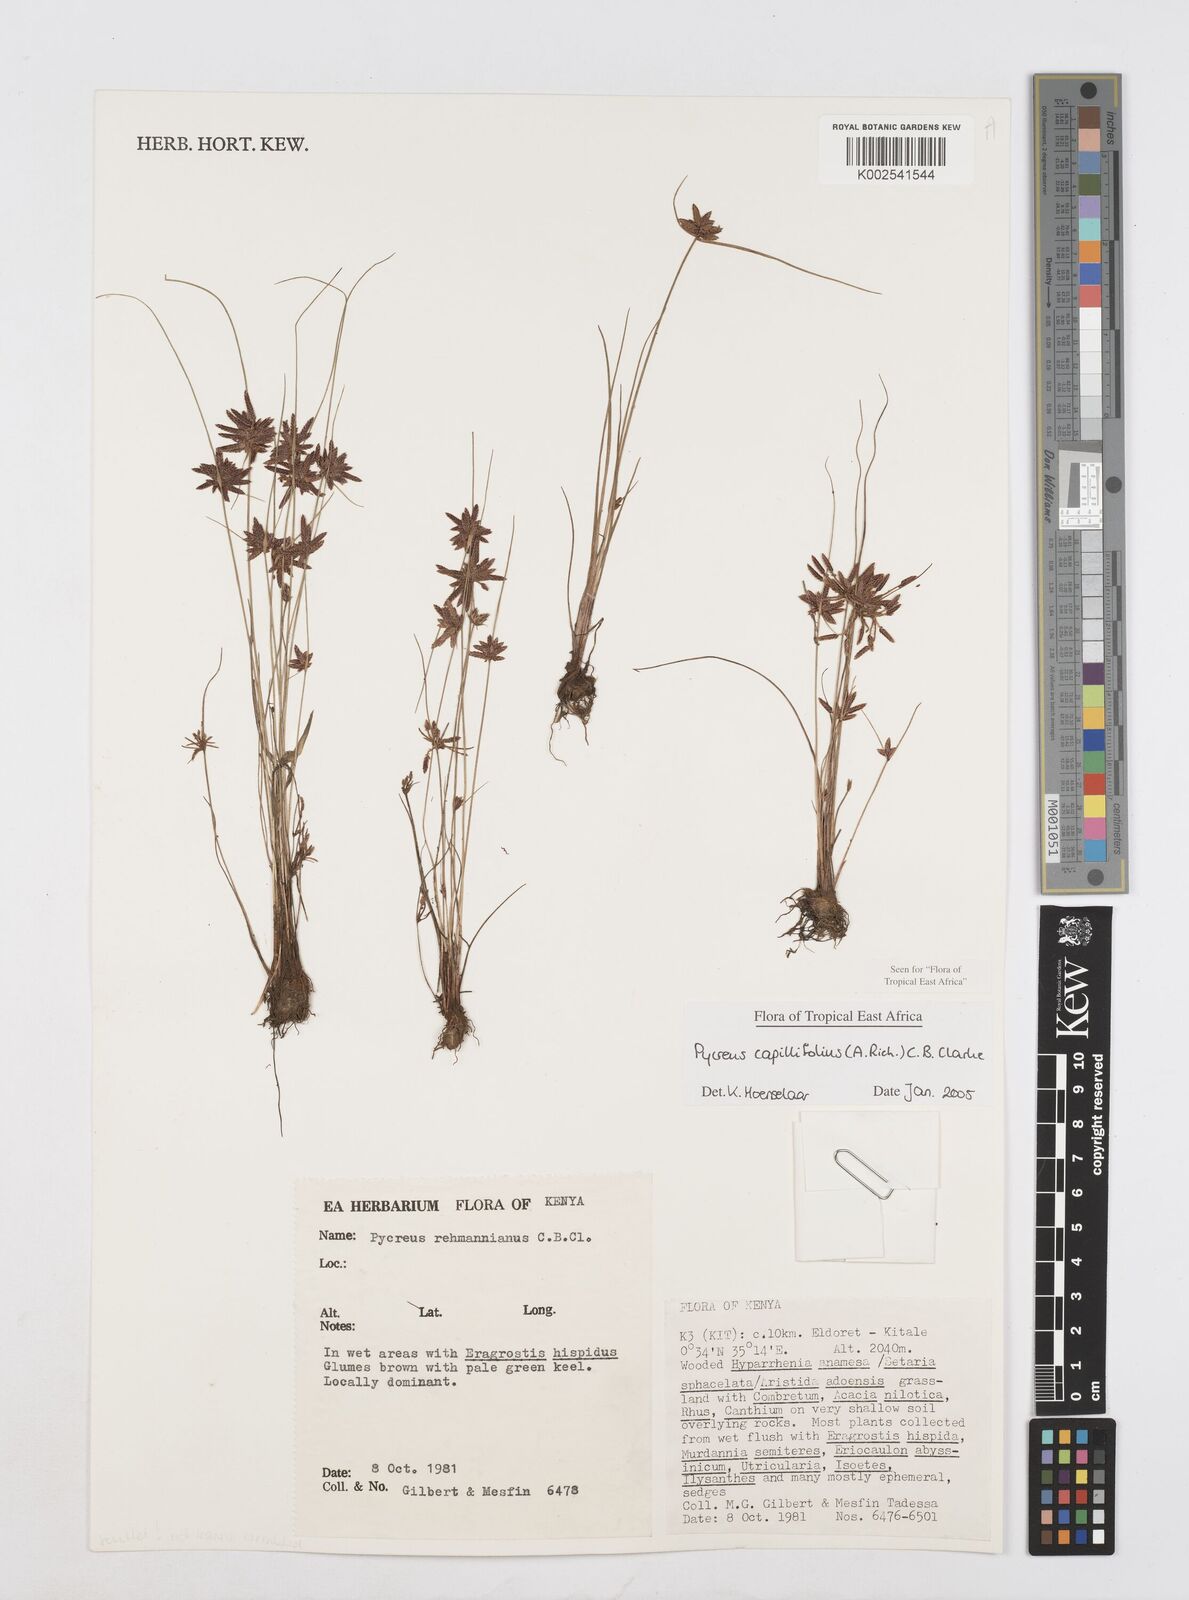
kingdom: Plantae
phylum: Tracheophyta
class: Liliopsida
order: Poales
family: Cyperaceae
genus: Cyperus
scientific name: Cyperus capillifolius
